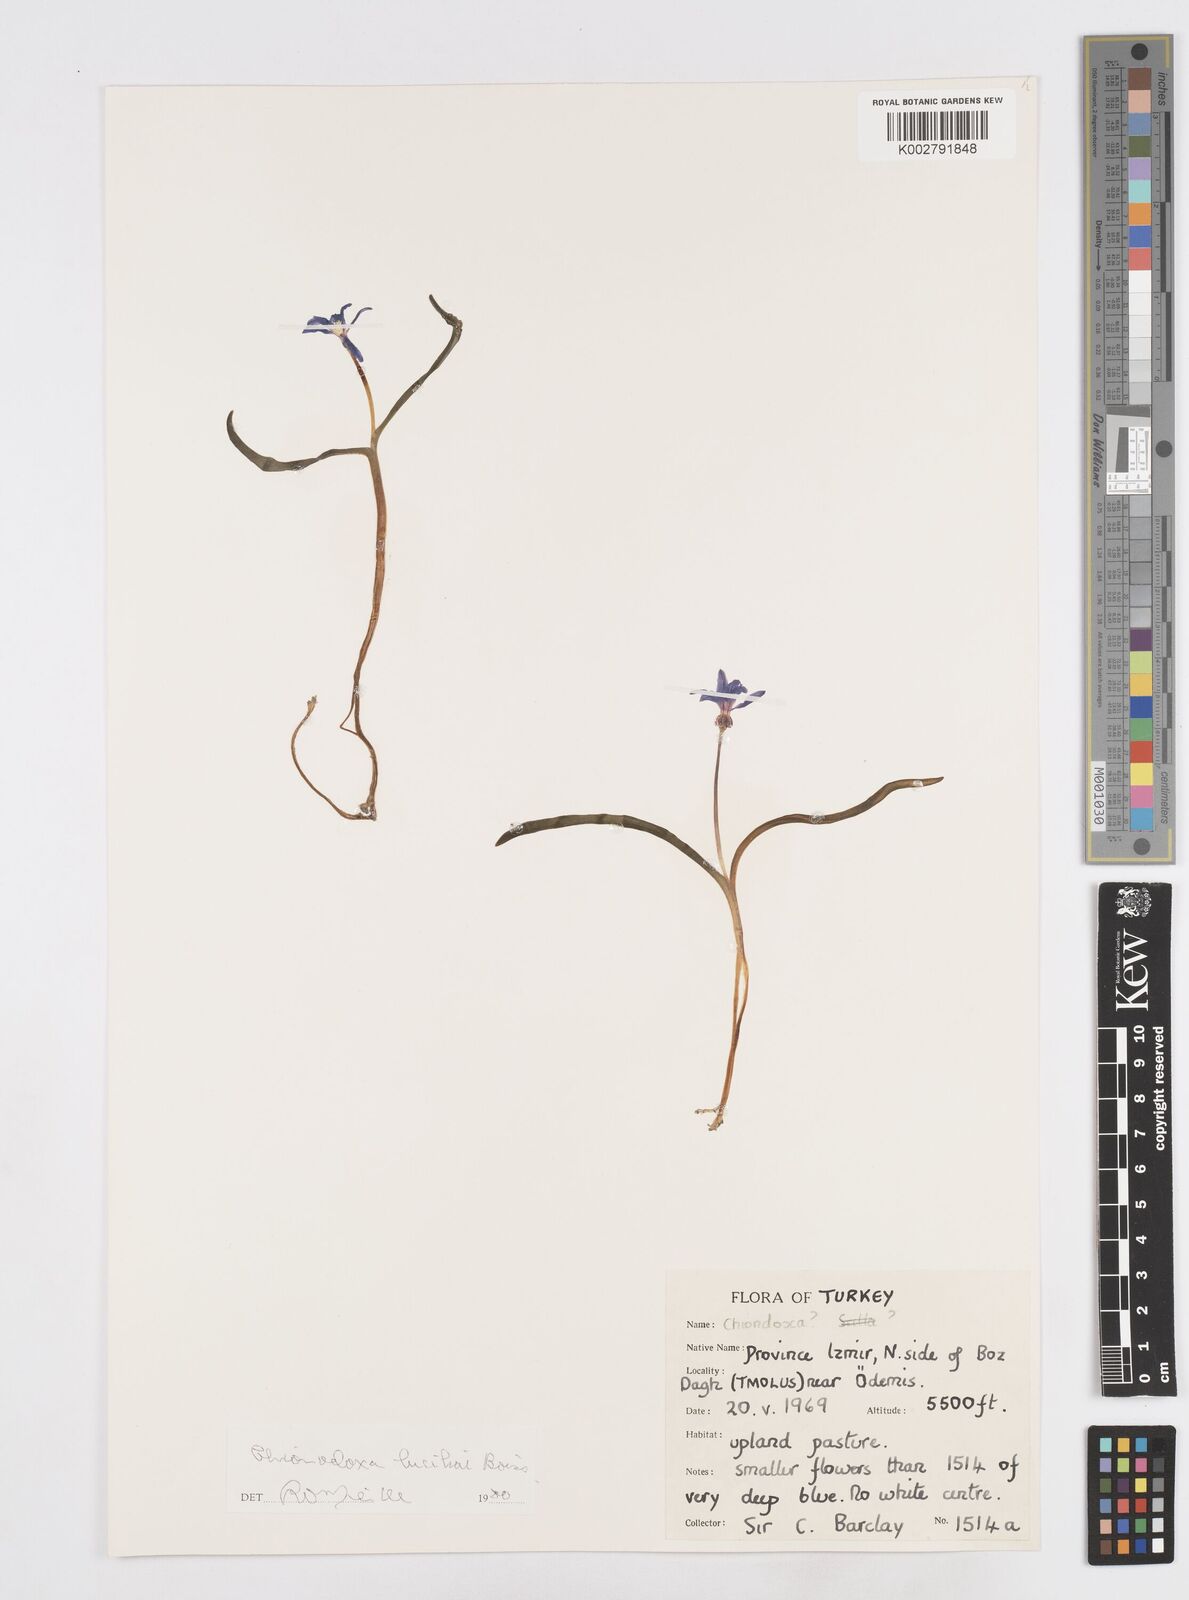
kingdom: Plantae
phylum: Tracheophyta
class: Liliopsida
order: Asparagales
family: Asparagaceae
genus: Scilla
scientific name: Scilla luciliae
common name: Boissier's glory-of-the-snow
